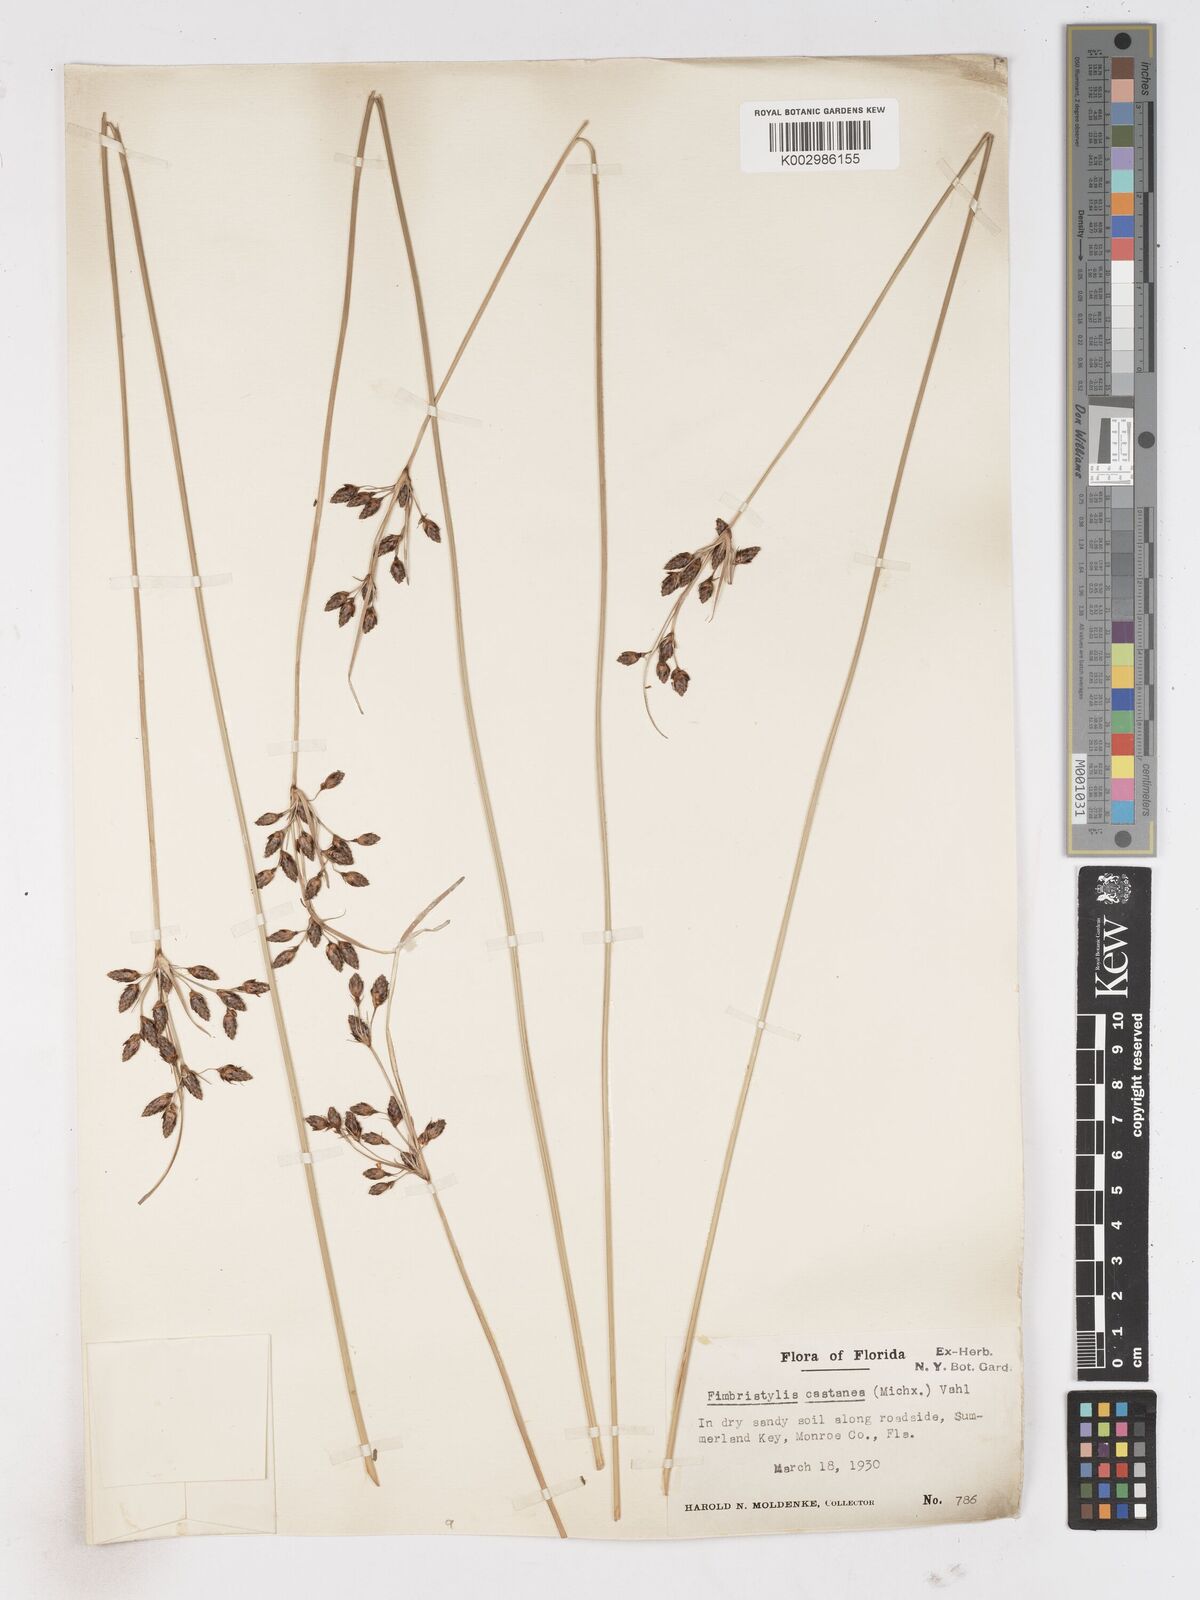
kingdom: Plantae
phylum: Tracheophyta
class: Liliopsida
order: Poales
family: Cyperaceae
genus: Fimbristylis
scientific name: Fimbristylis spadicea
